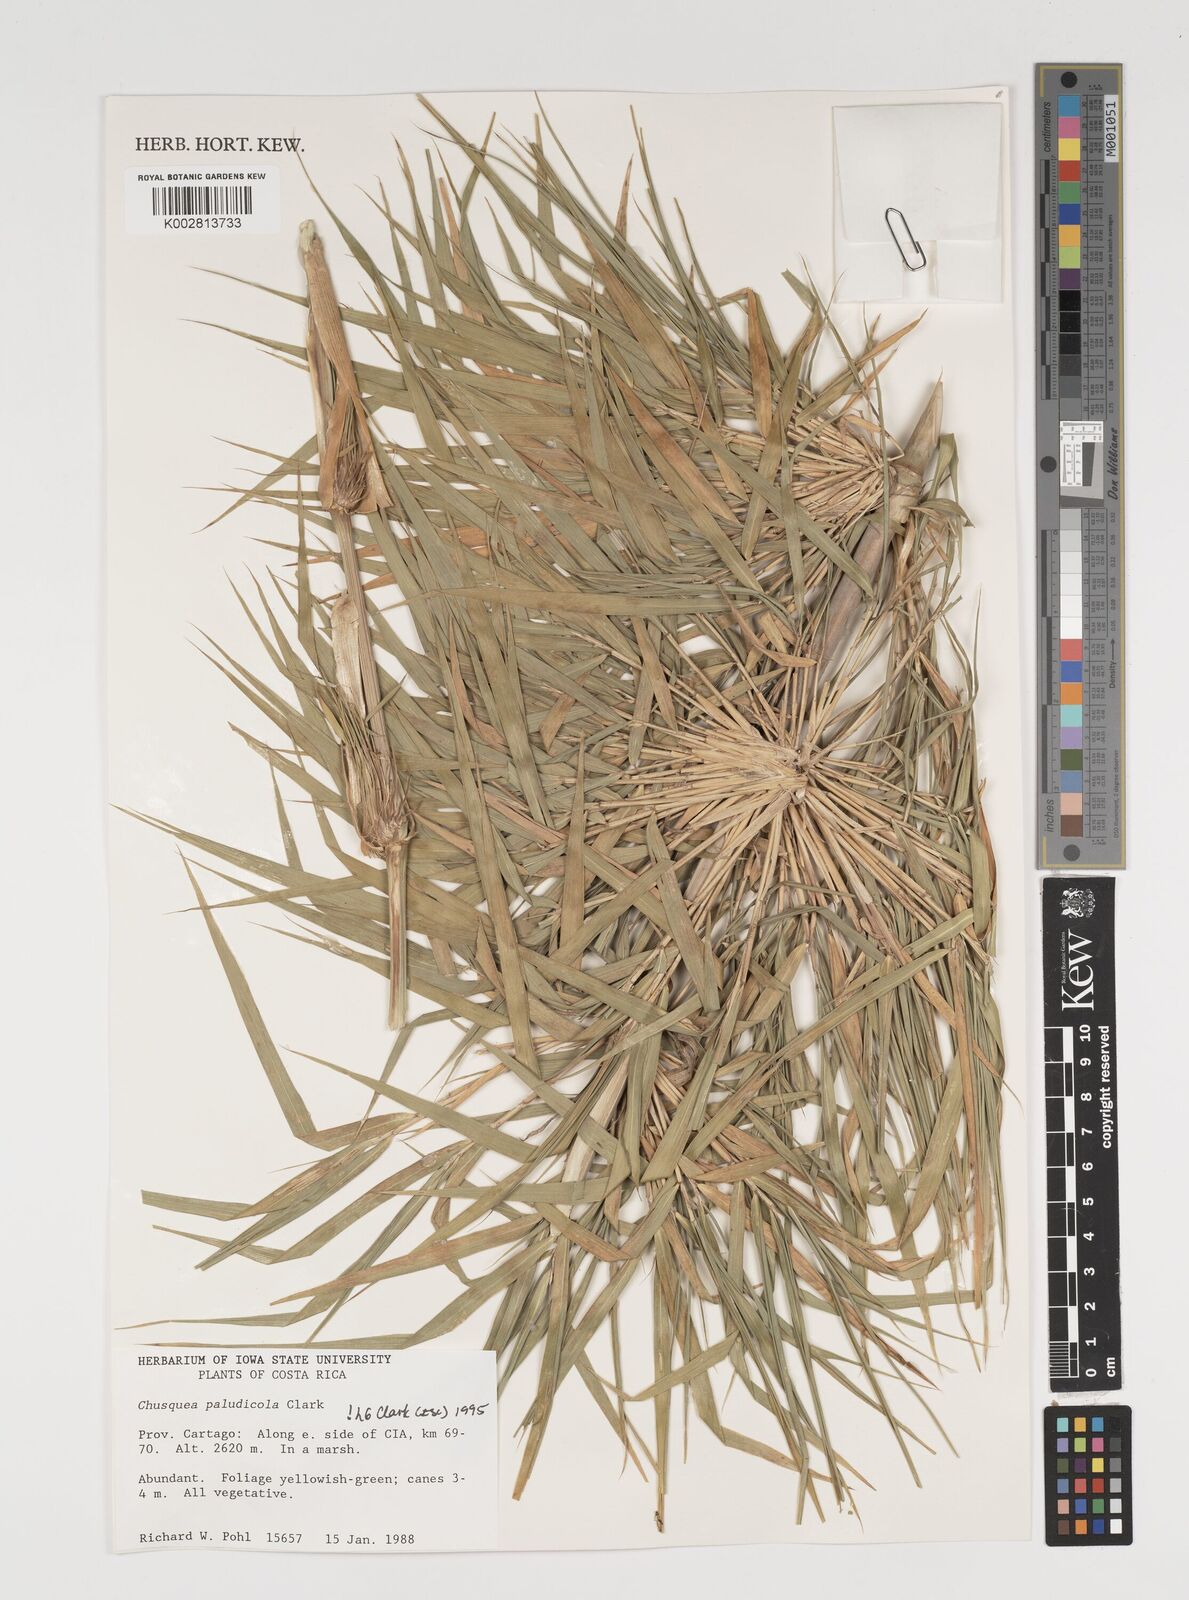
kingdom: Plantae
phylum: Tracheophyta
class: Liliopsida
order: Poales
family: Poaceae
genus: Chusquea
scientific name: Chusquea paludicola
